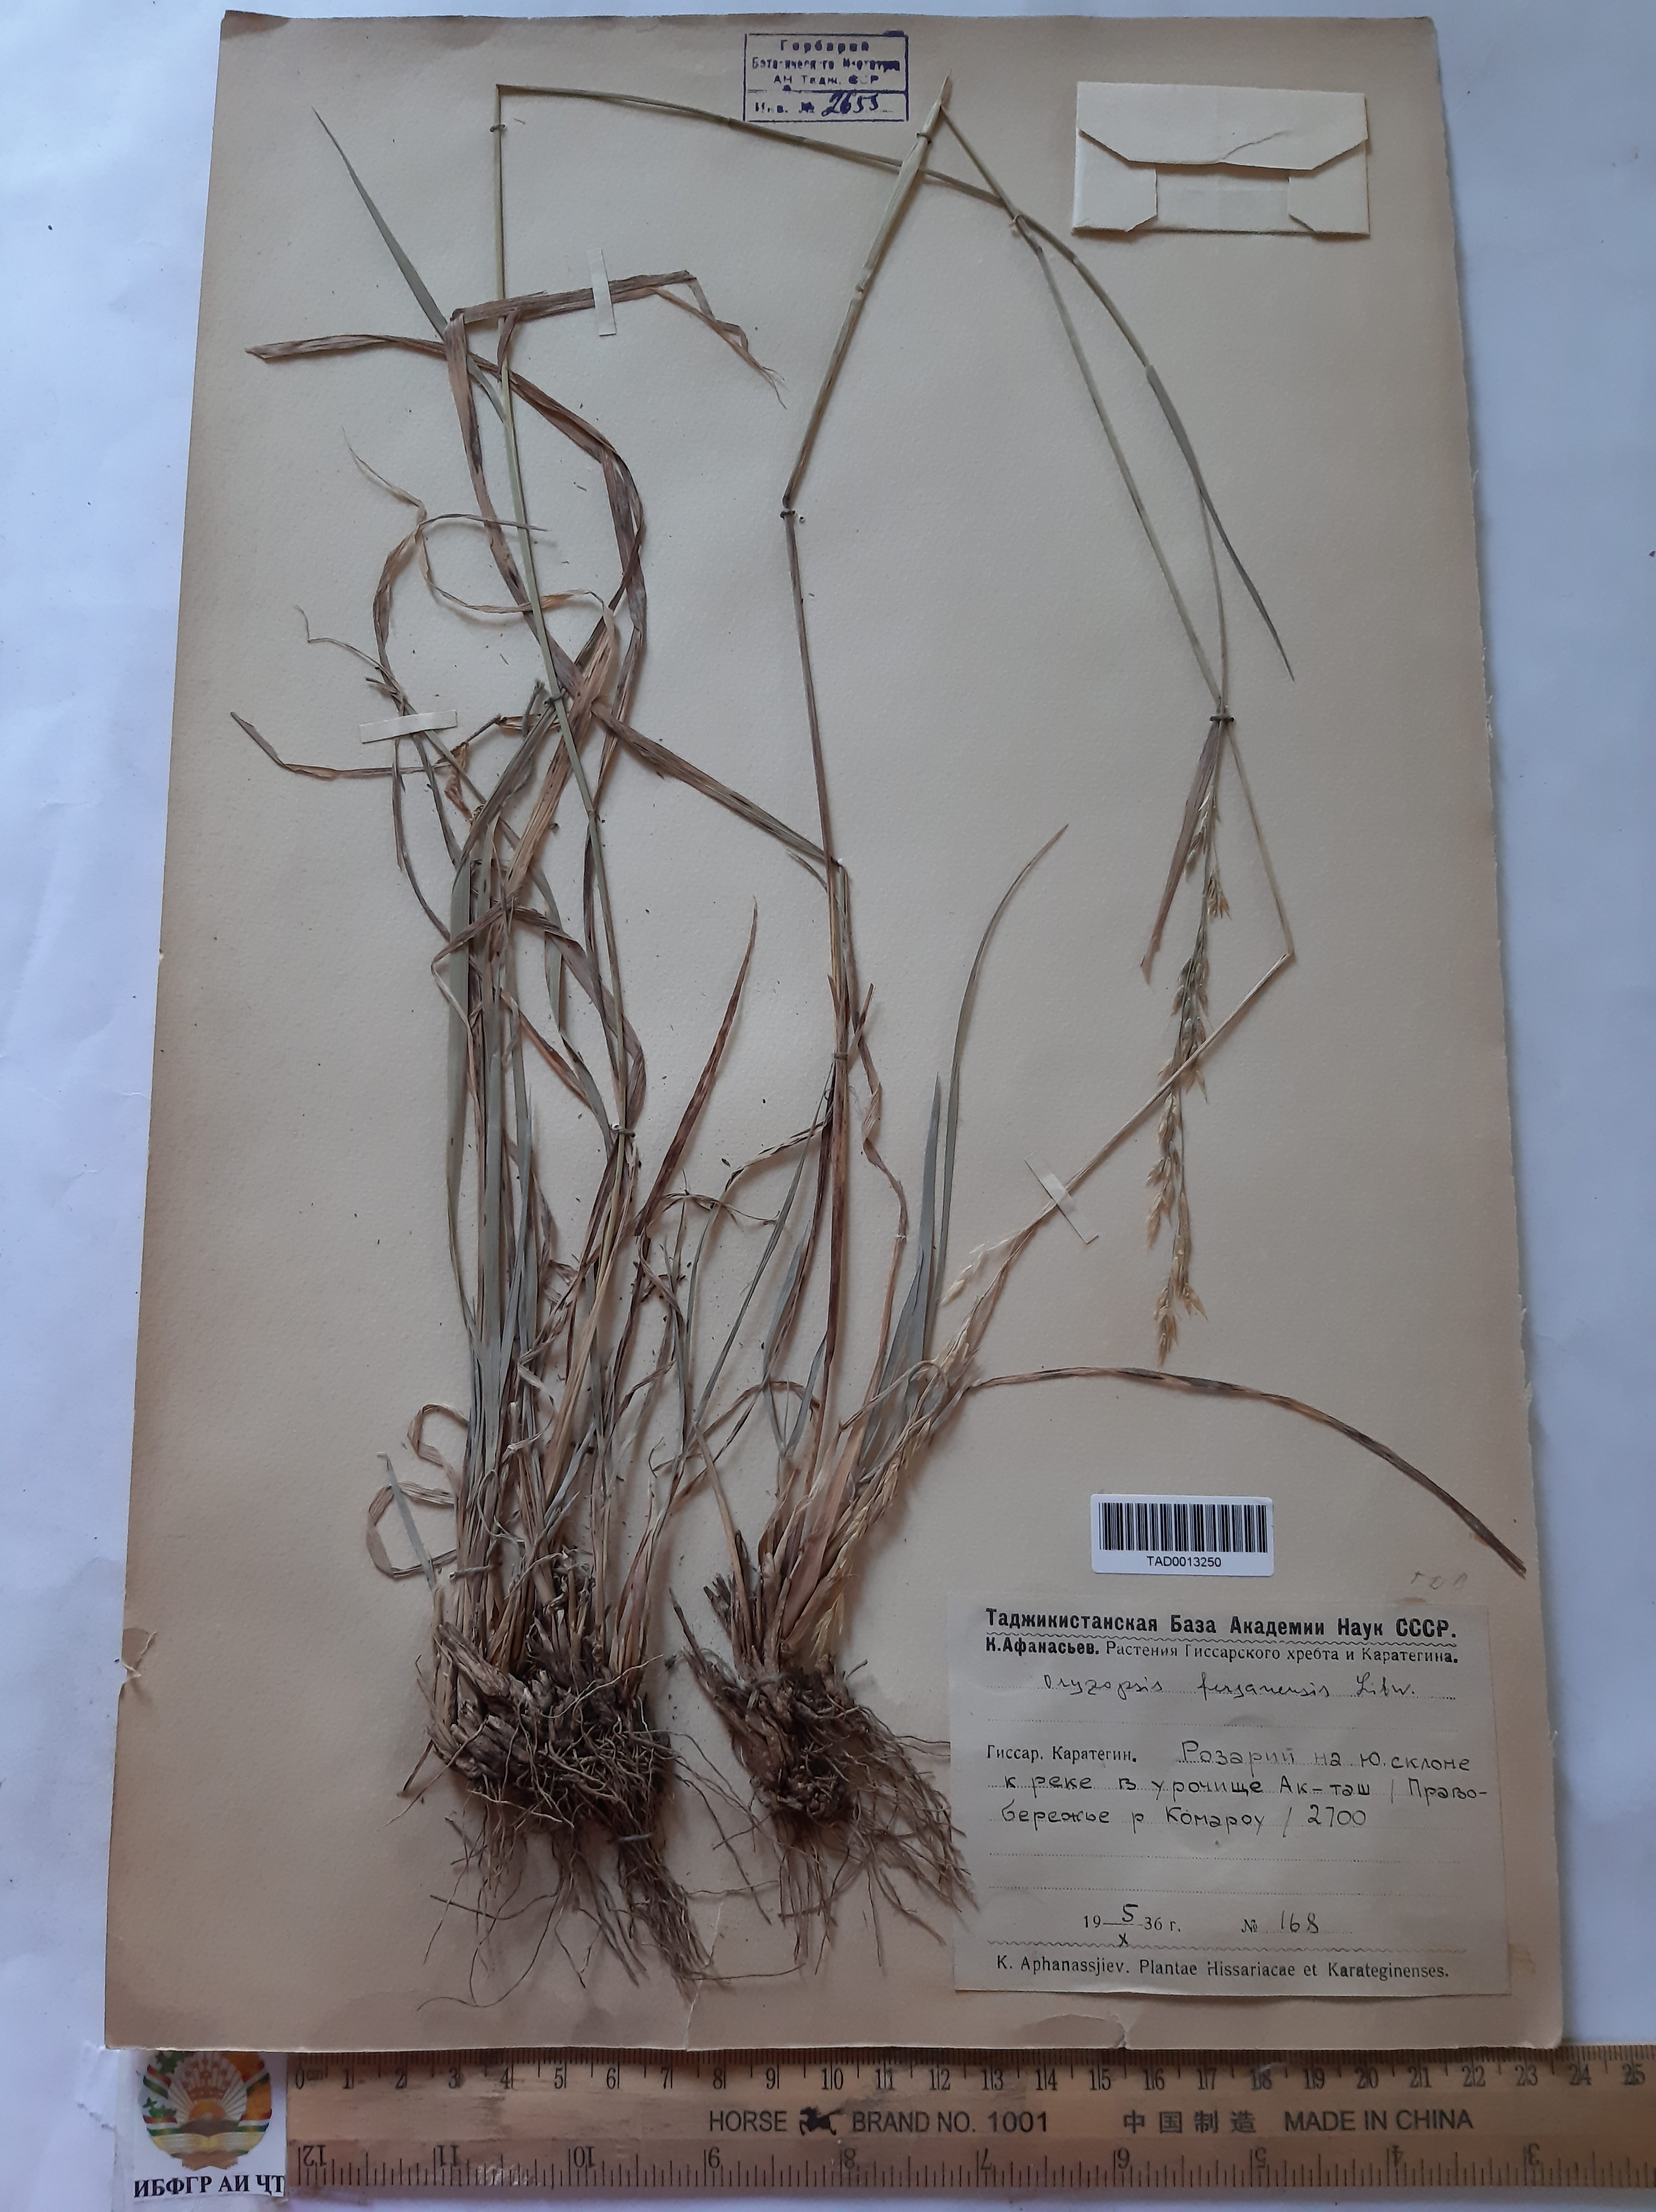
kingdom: Plantae
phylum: Tracheophyta
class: Liliopsida
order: Poales
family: Poaceae
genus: Piptatherum
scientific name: Piptatherum ferganense
